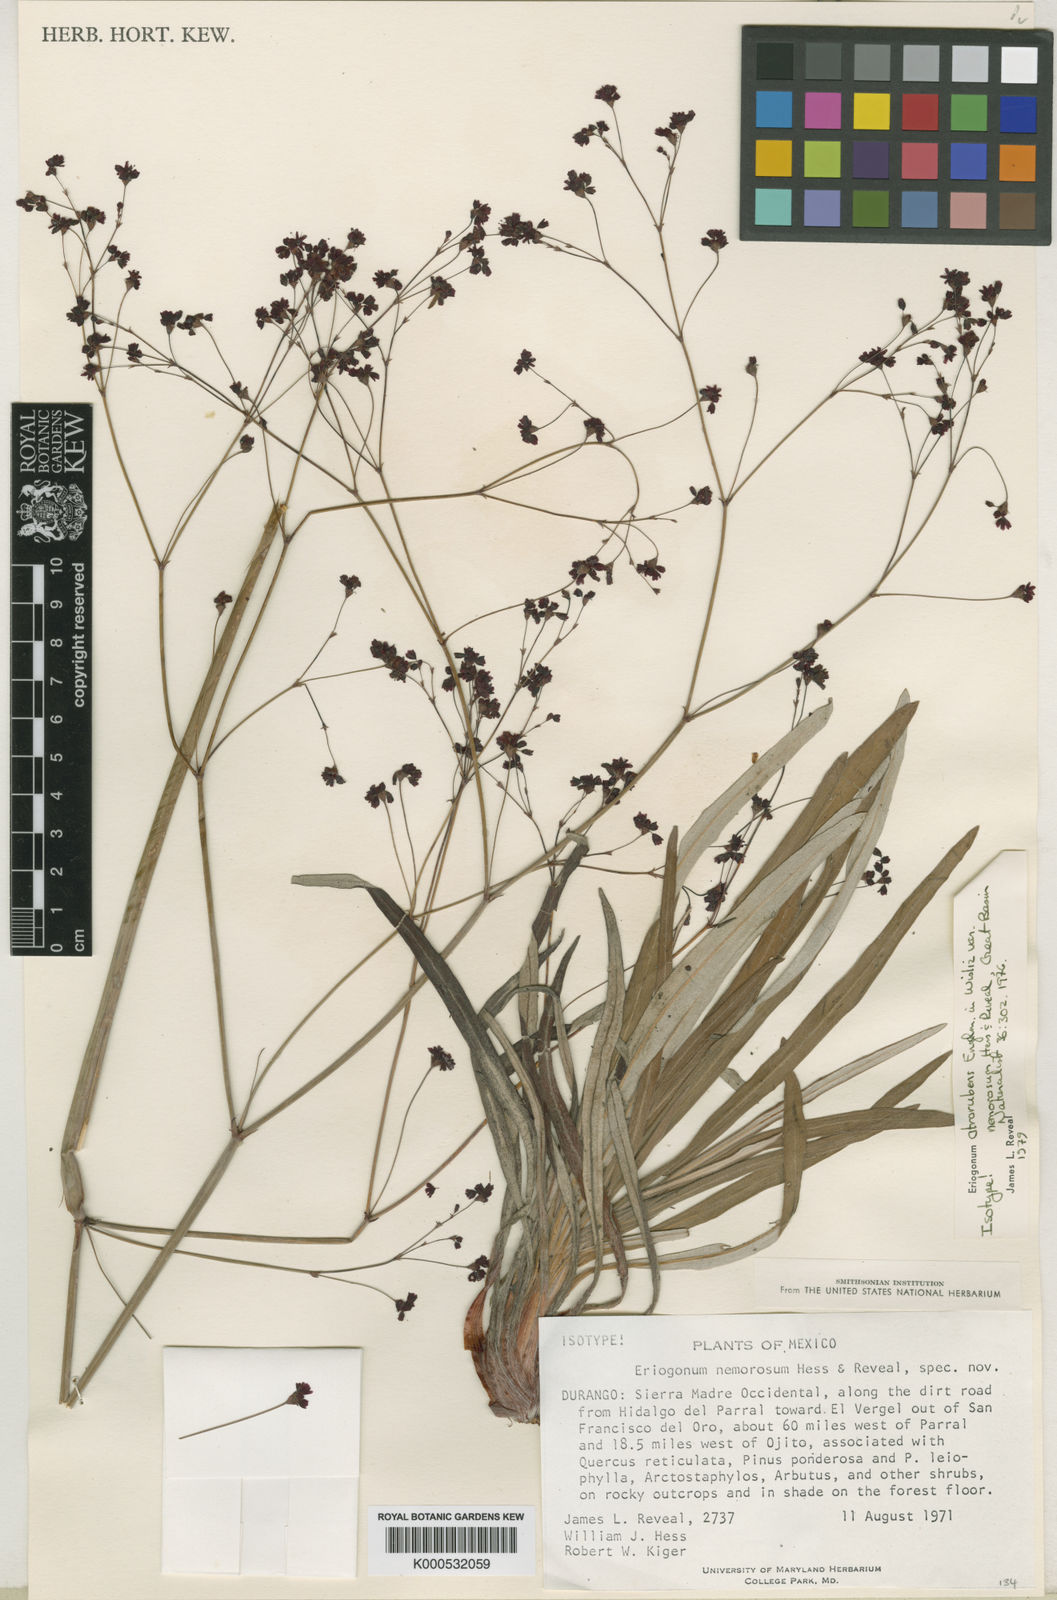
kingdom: Plantae
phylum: Tracheophyta
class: Magnoliopsida
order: Caryophyllales
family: Polygonaceae
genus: Eriogonum
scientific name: Eriogonum
